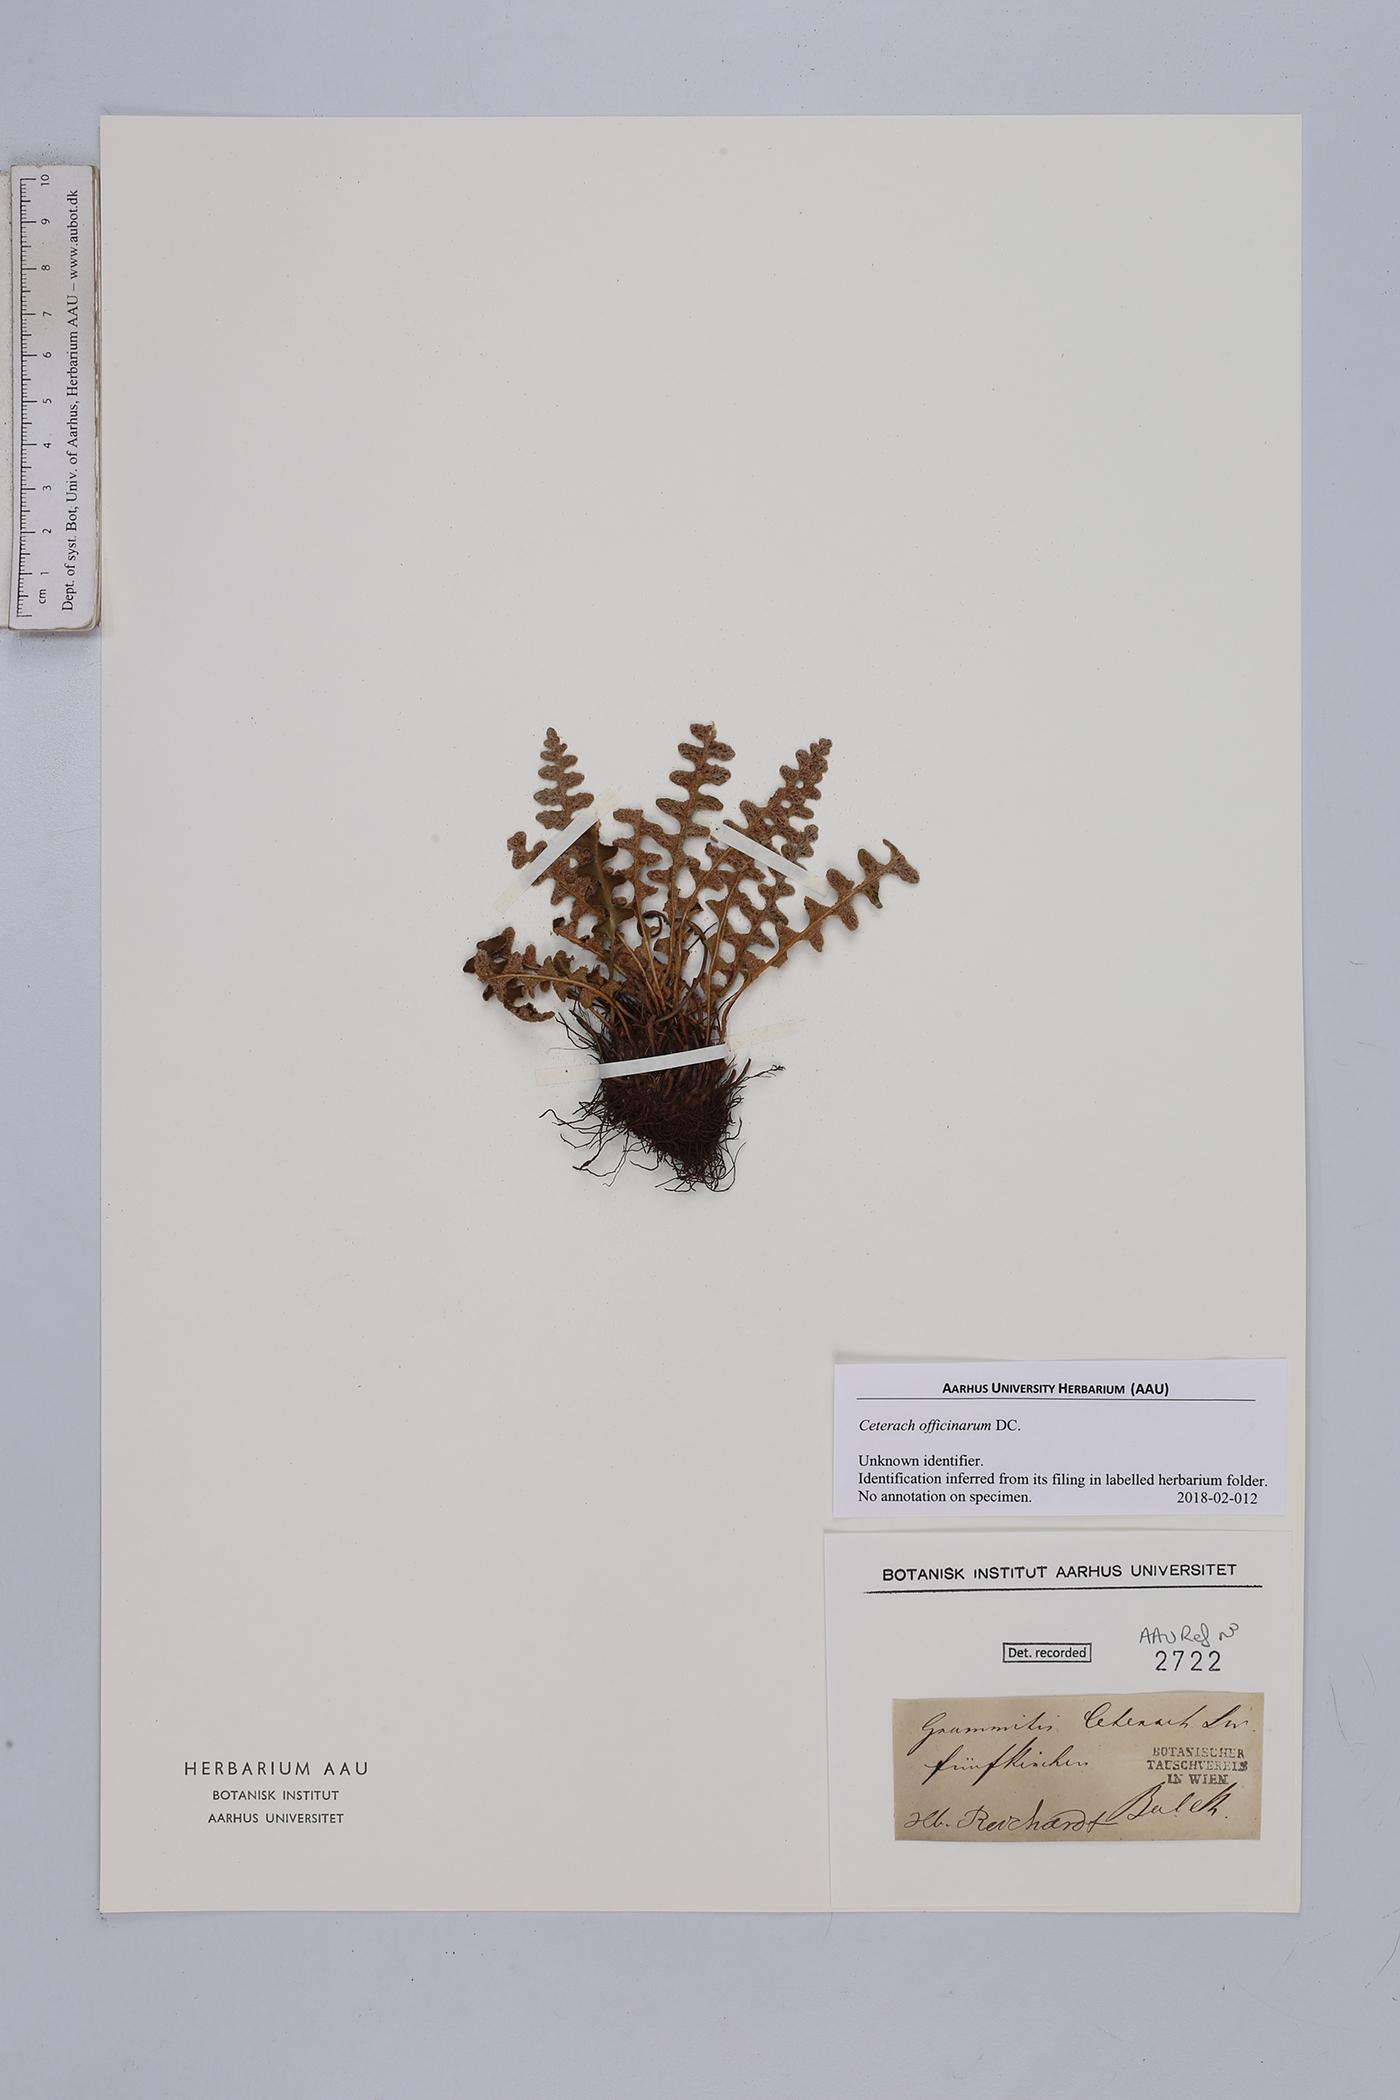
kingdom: Plantae
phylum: Tracheophyta
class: Polypodiopsida
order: Polypodiales
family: Aspleniaceae
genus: Asplenium
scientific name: Asplenium ceterach
